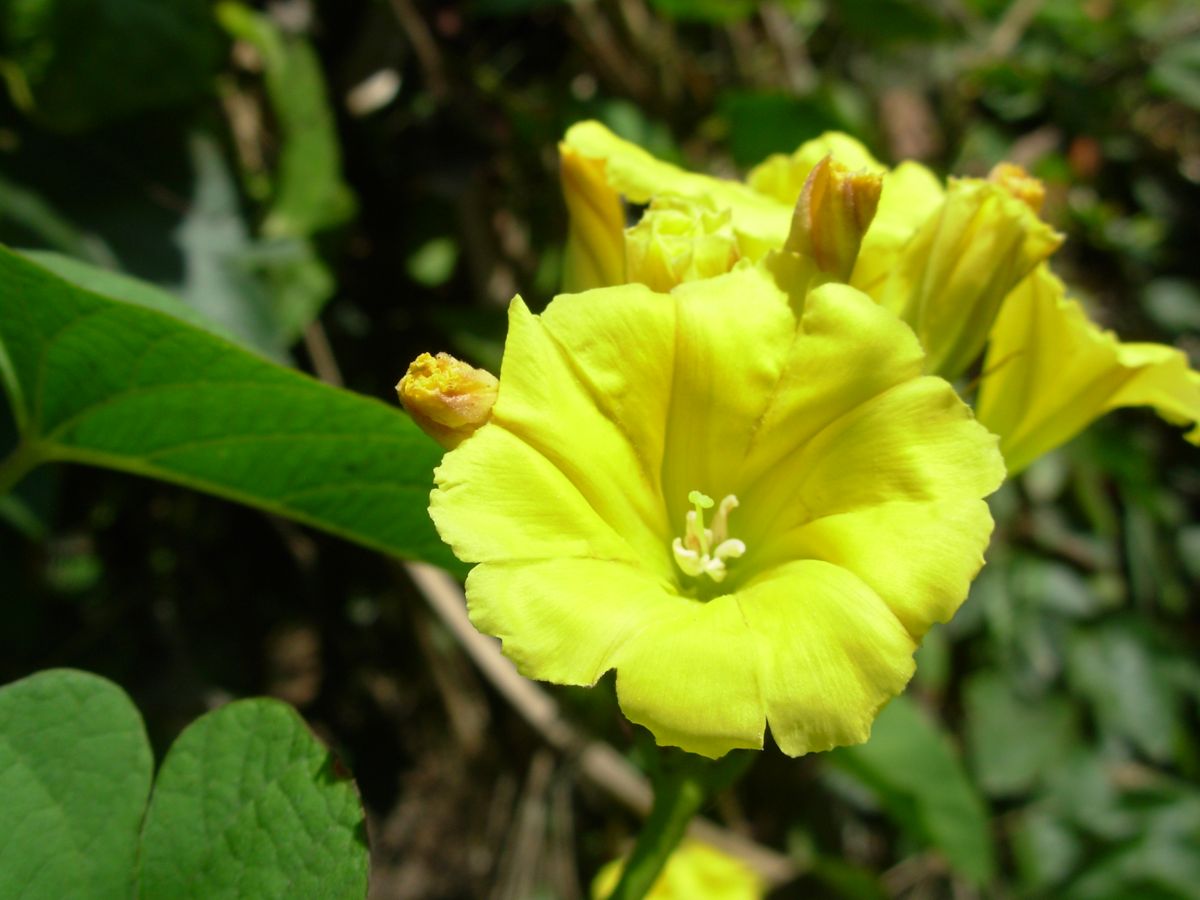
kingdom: Plantae
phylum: Tracheophyta
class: Magnoliopsida
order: Solanales
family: Convolvulaceae
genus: Camonea
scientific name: Camonea umbellata
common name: Hogvine
